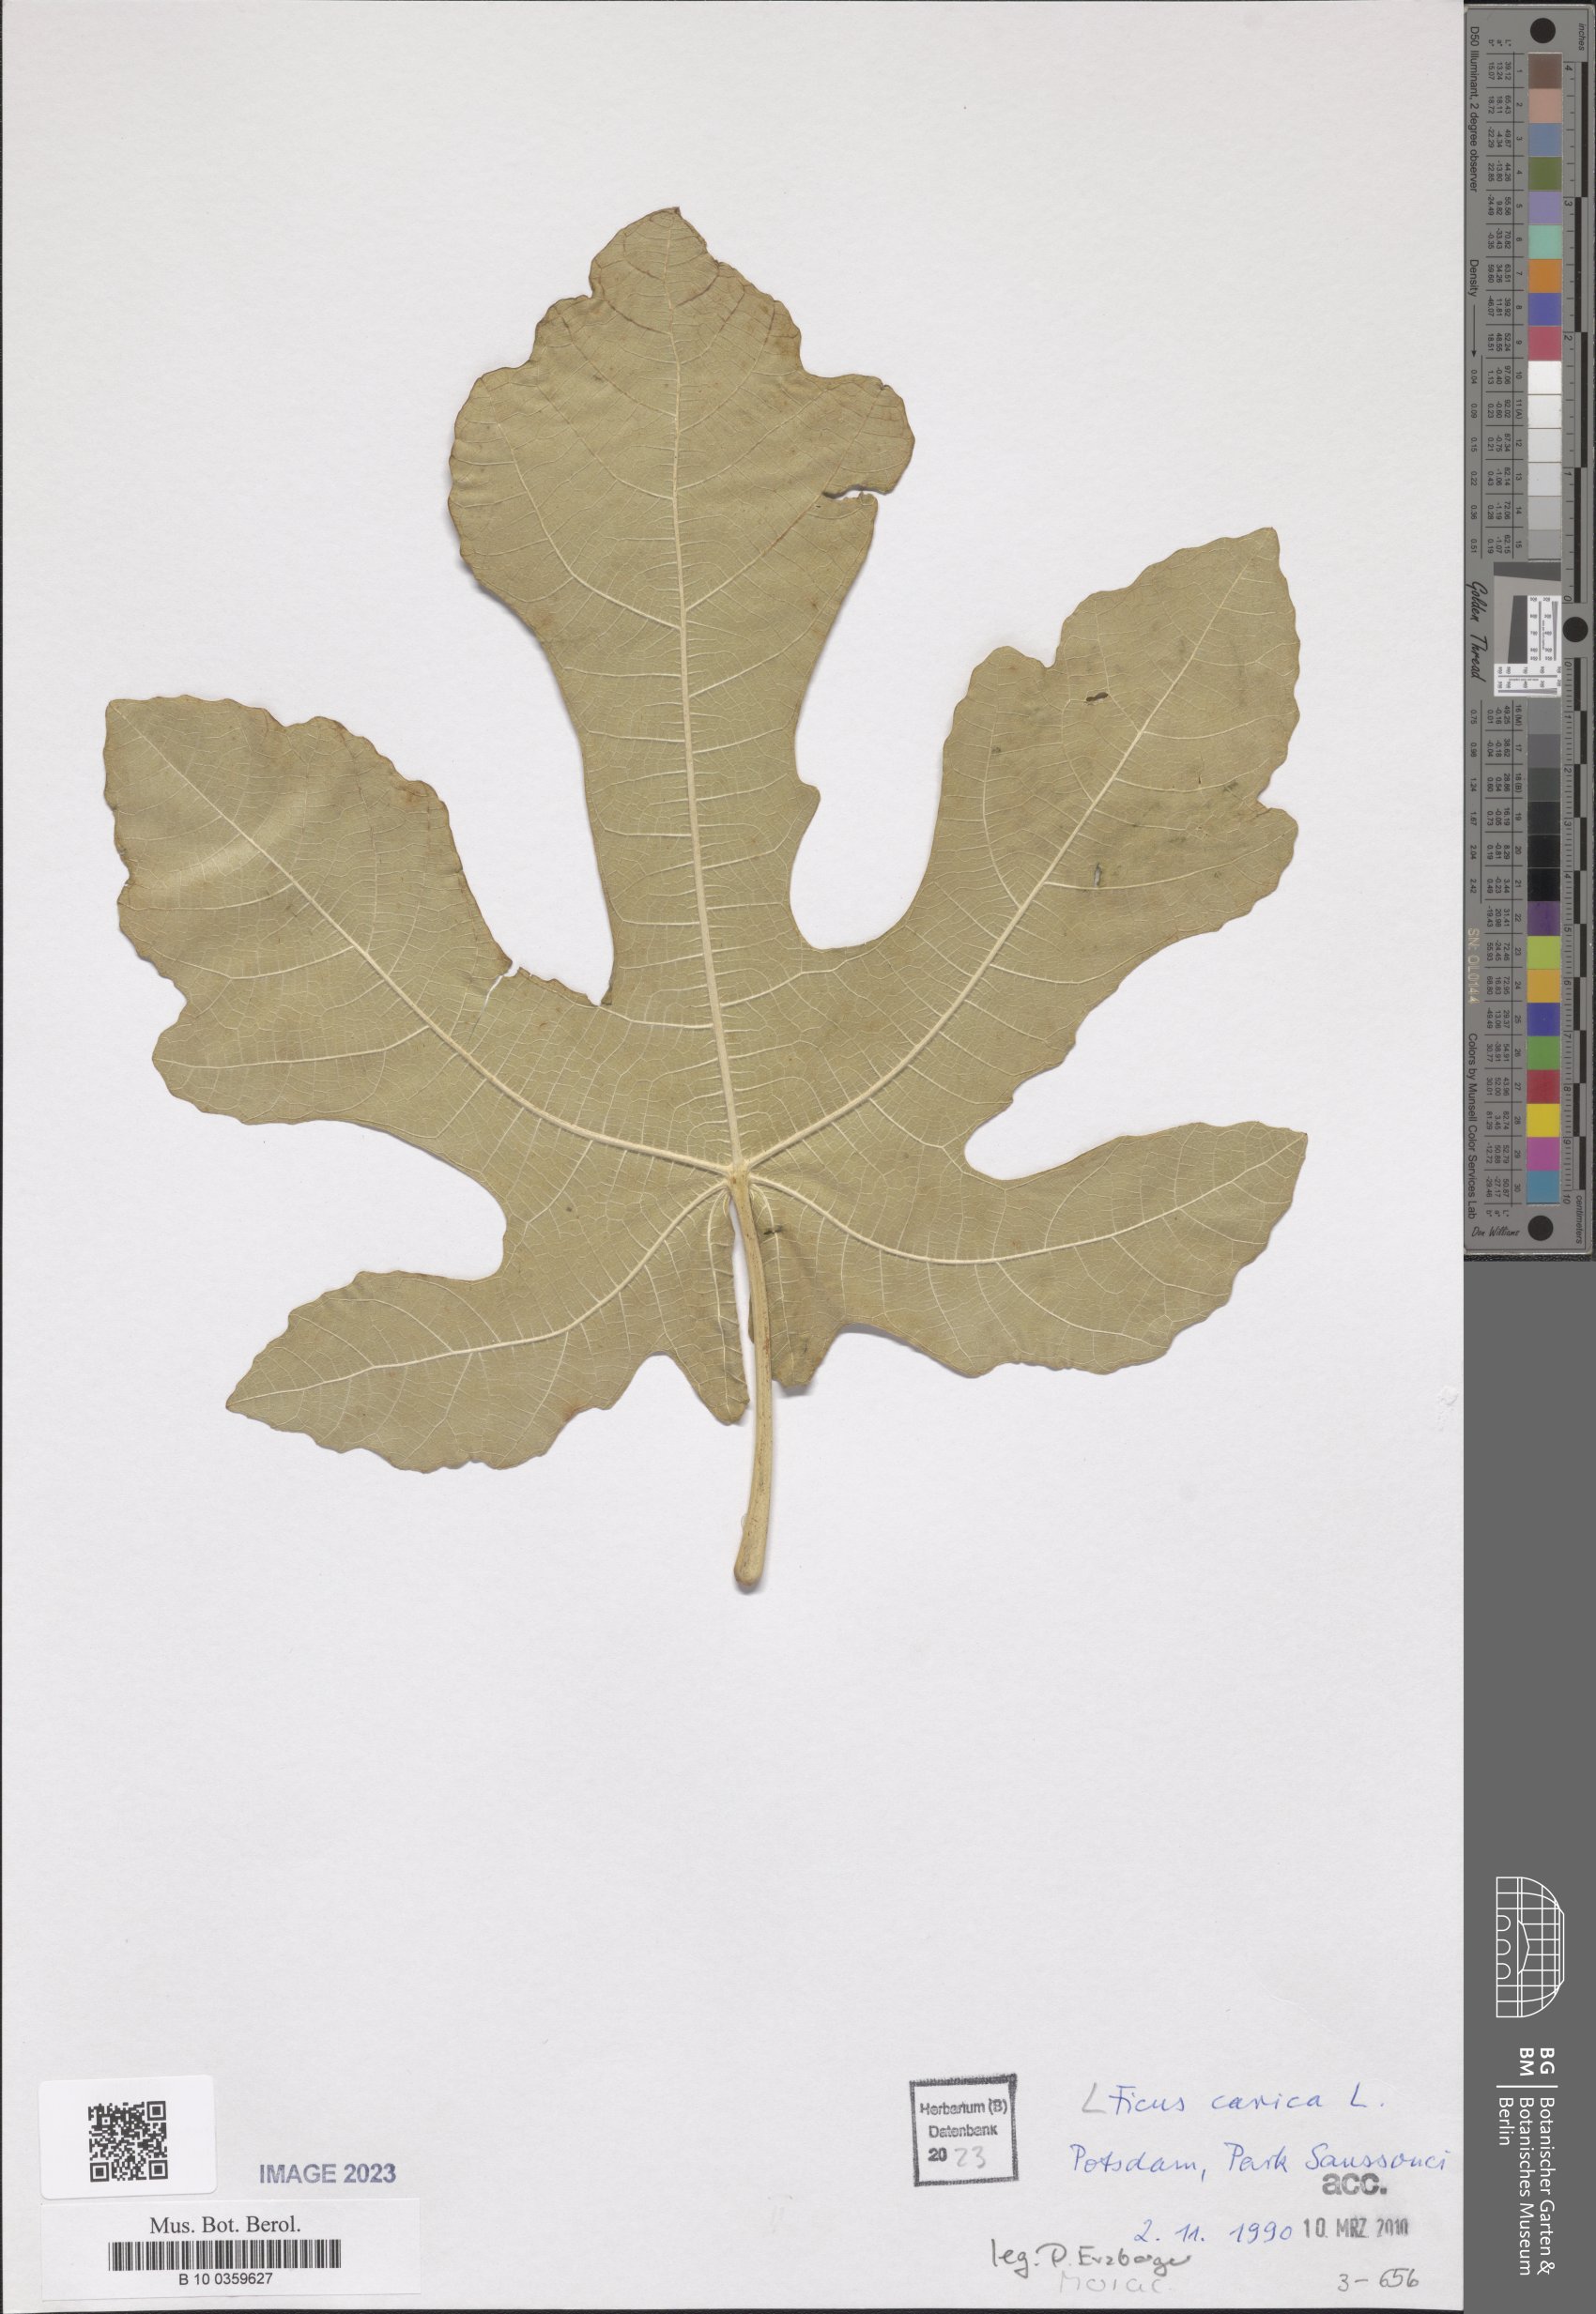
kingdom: Plantae
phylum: Tracheophyta
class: Magnoliopsida
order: Rosales
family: Moraceae
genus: Ficus
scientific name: Ficus carica
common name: Fig
